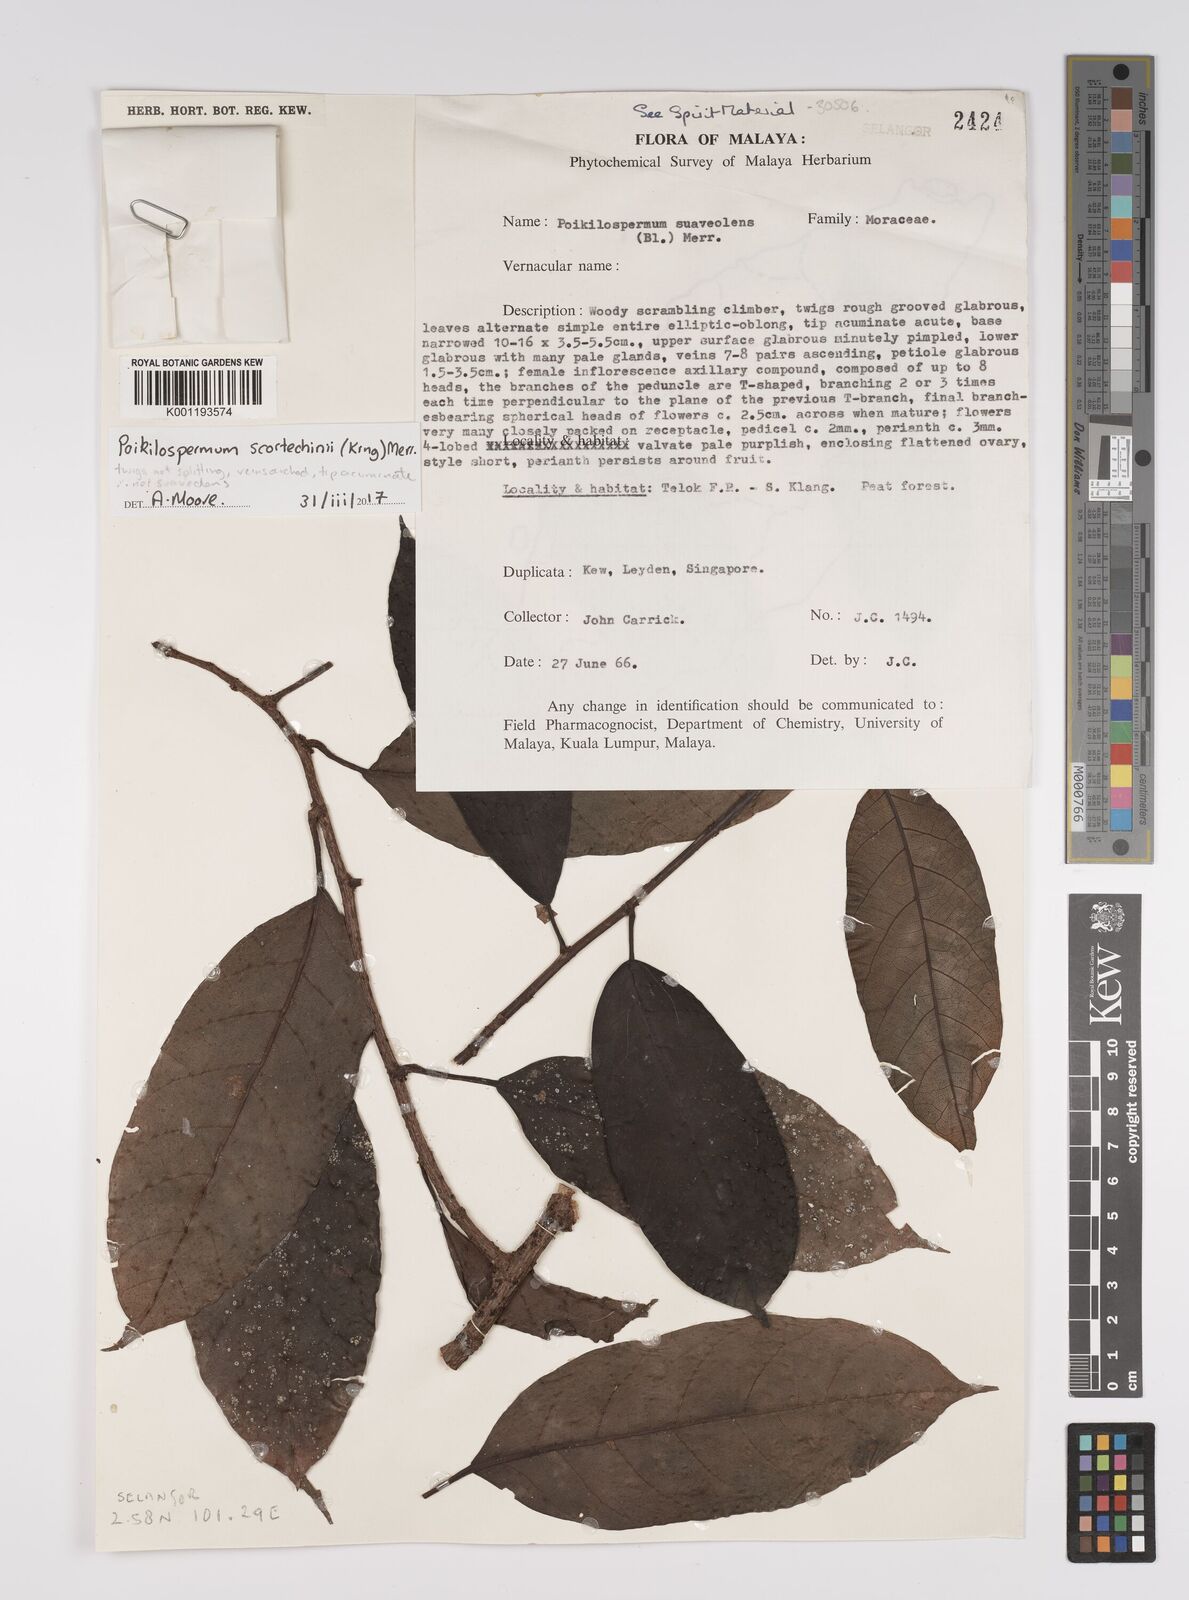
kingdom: Plantae
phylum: Tracheophyta
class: Magnoliopsida
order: Rosales
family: Urticaceae
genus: Poikilospermum
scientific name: Poikilospermum scortechinii
